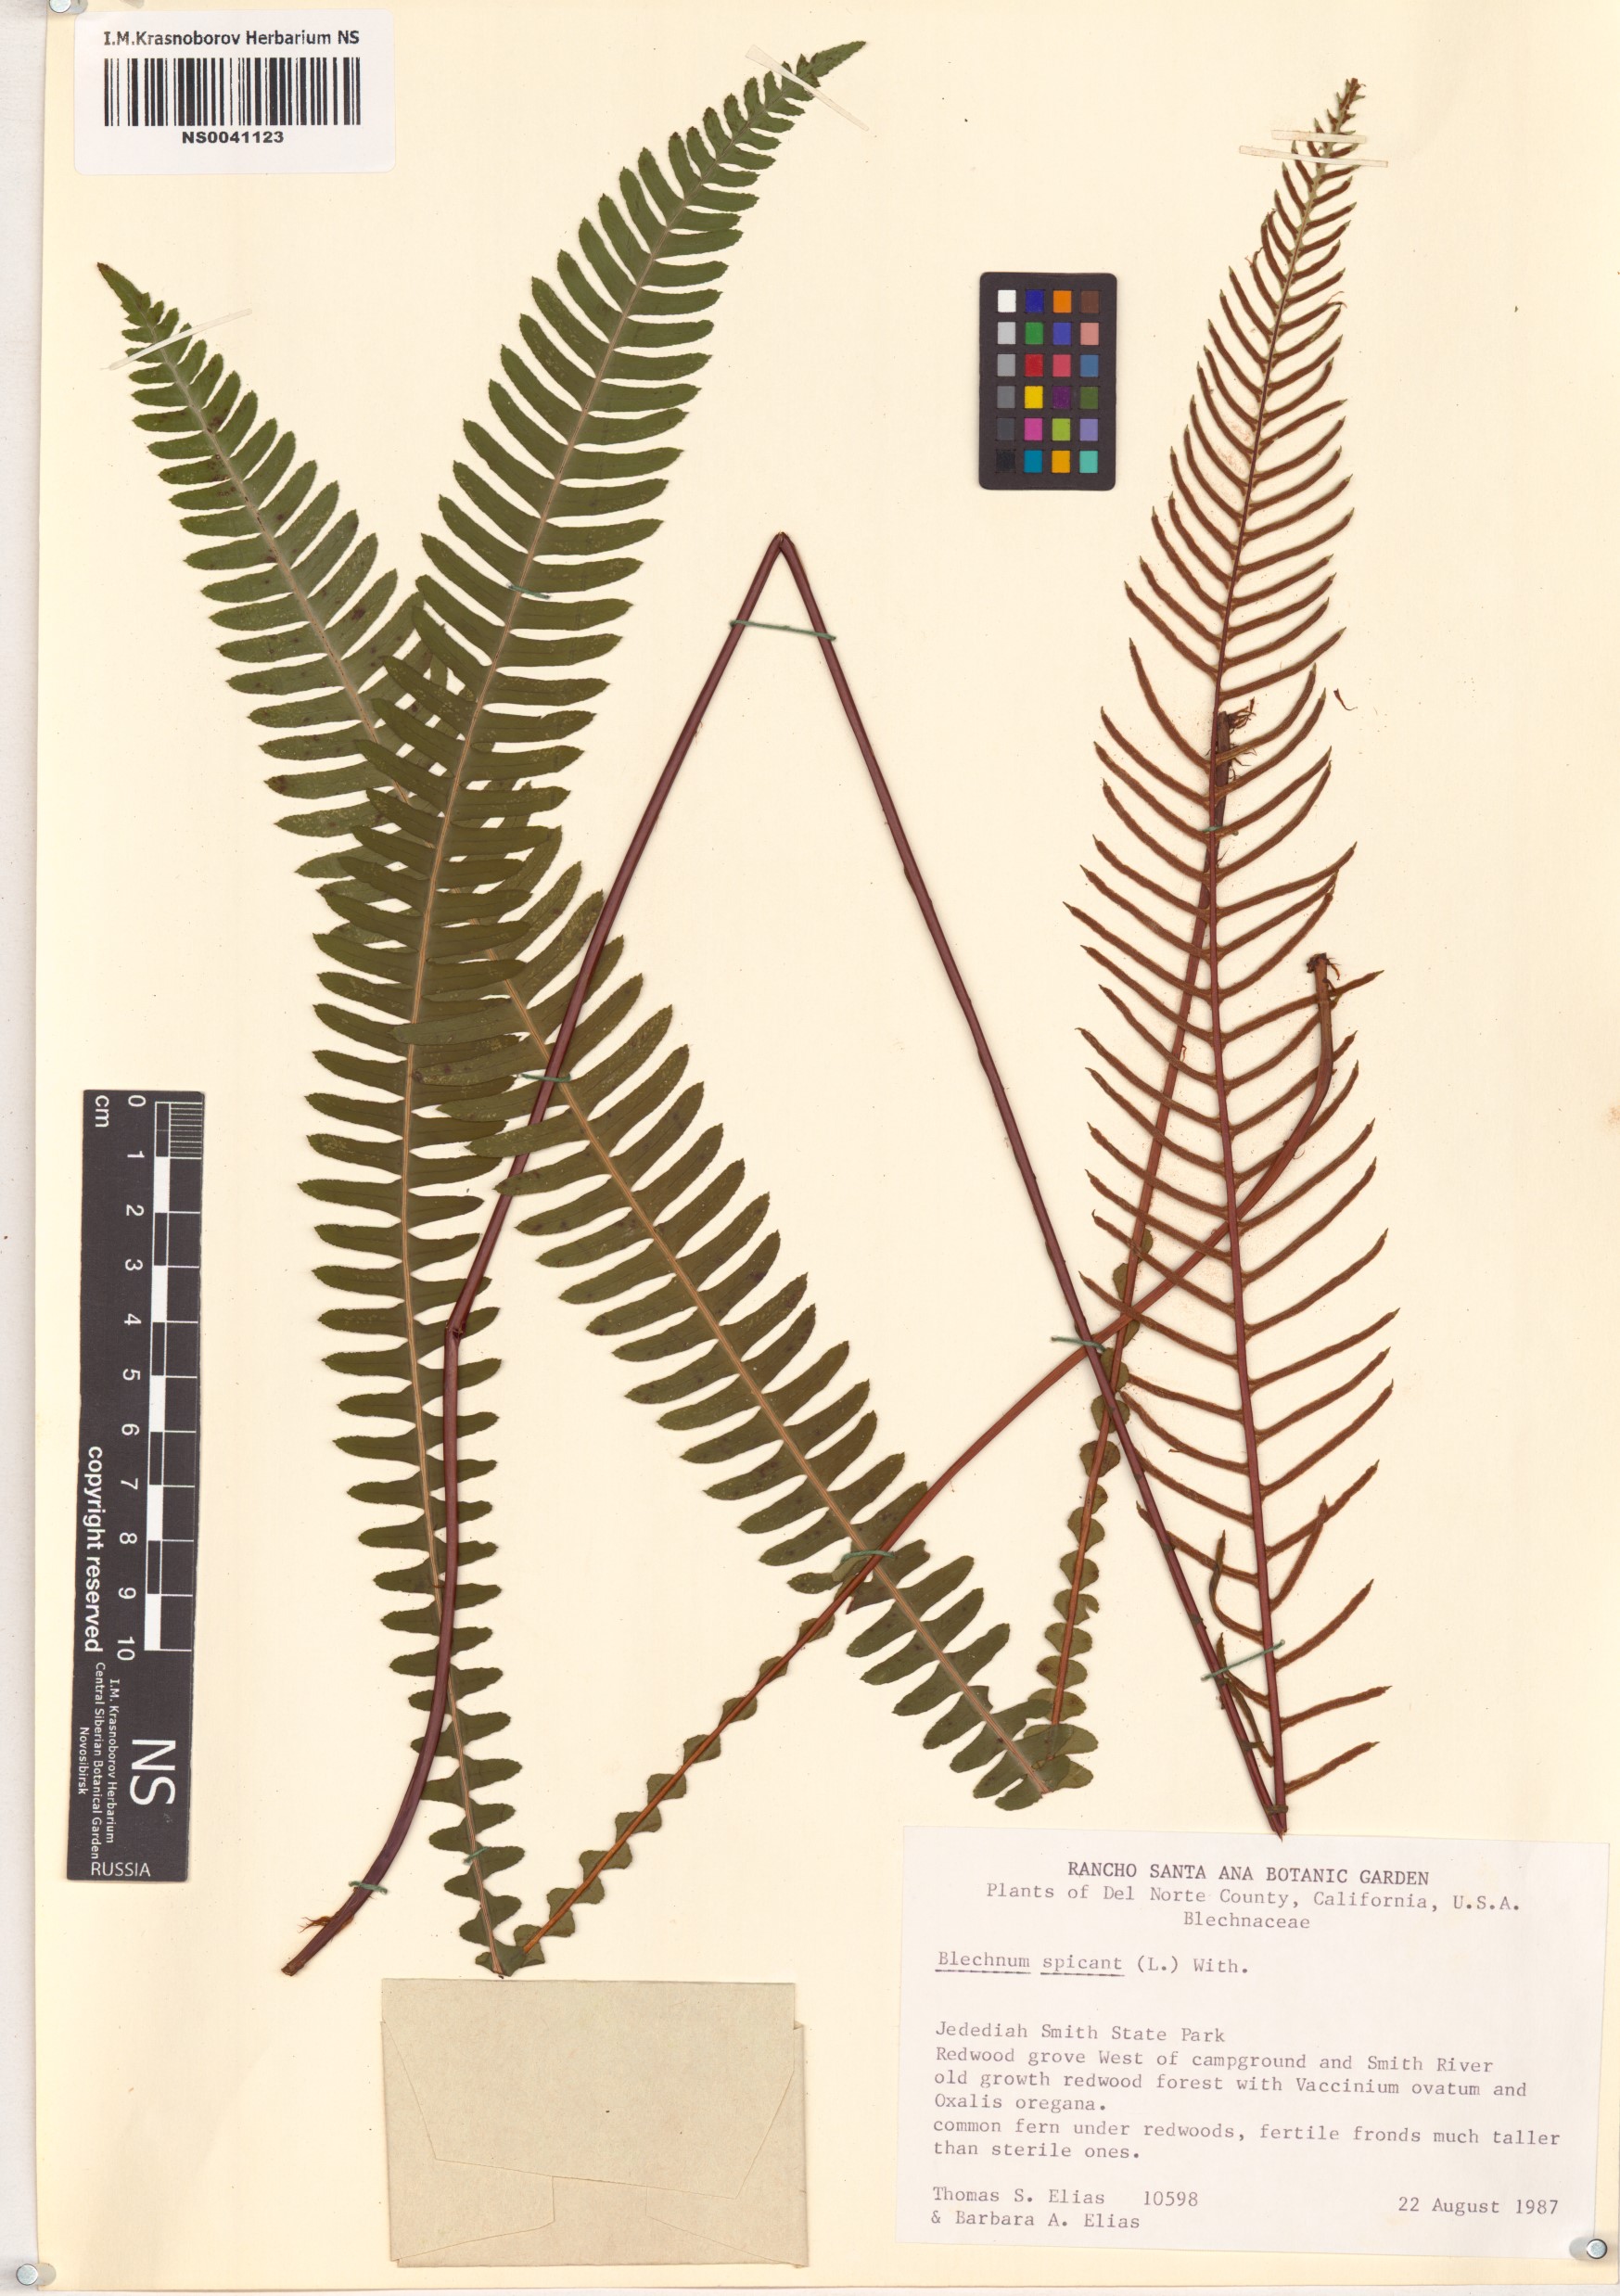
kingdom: Plantae
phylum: Tracheophyta
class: Polypodiopsida
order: Polypodiales
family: Blechnaceae
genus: Struthiopteris
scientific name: Struthiopteris spicant
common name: Deer fern
